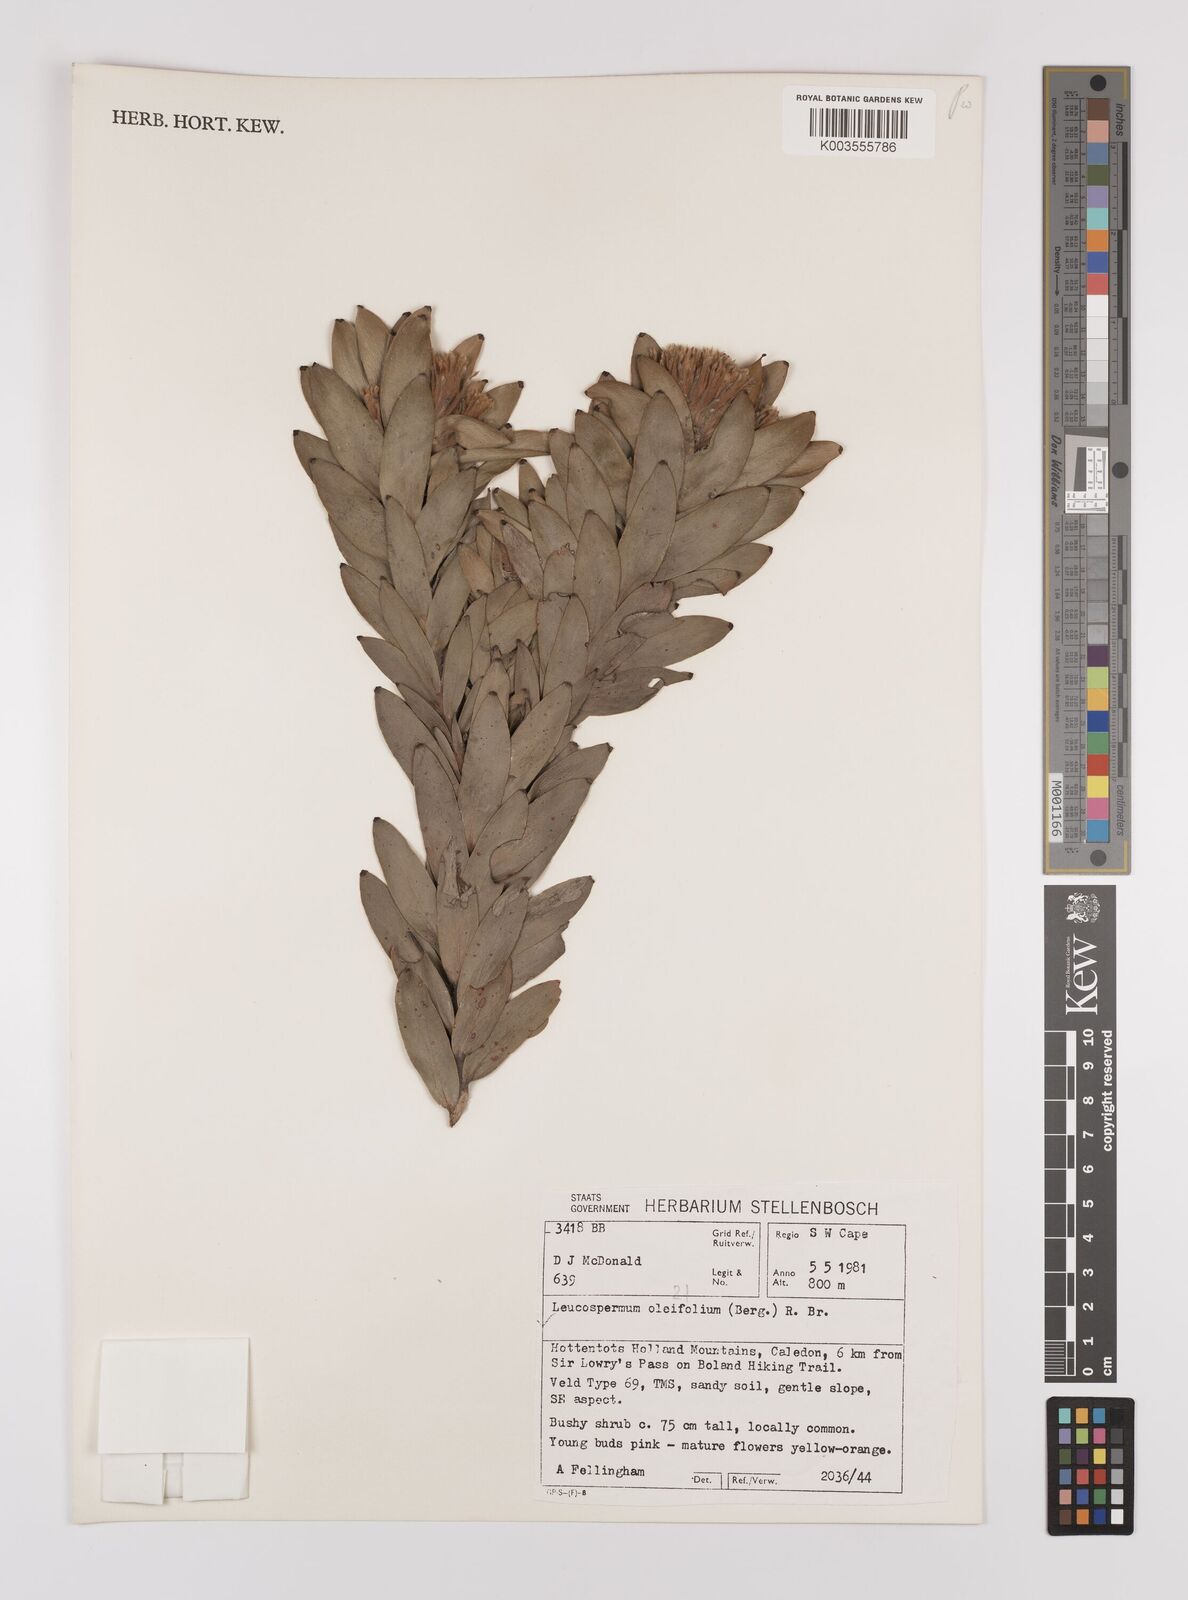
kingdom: Plantae
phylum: Tracheophyta
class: Magnoliopsida
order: Proteales
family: Proteaceae
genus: Leucospermum
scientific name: Leucospermum oleifolium
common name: Matches
